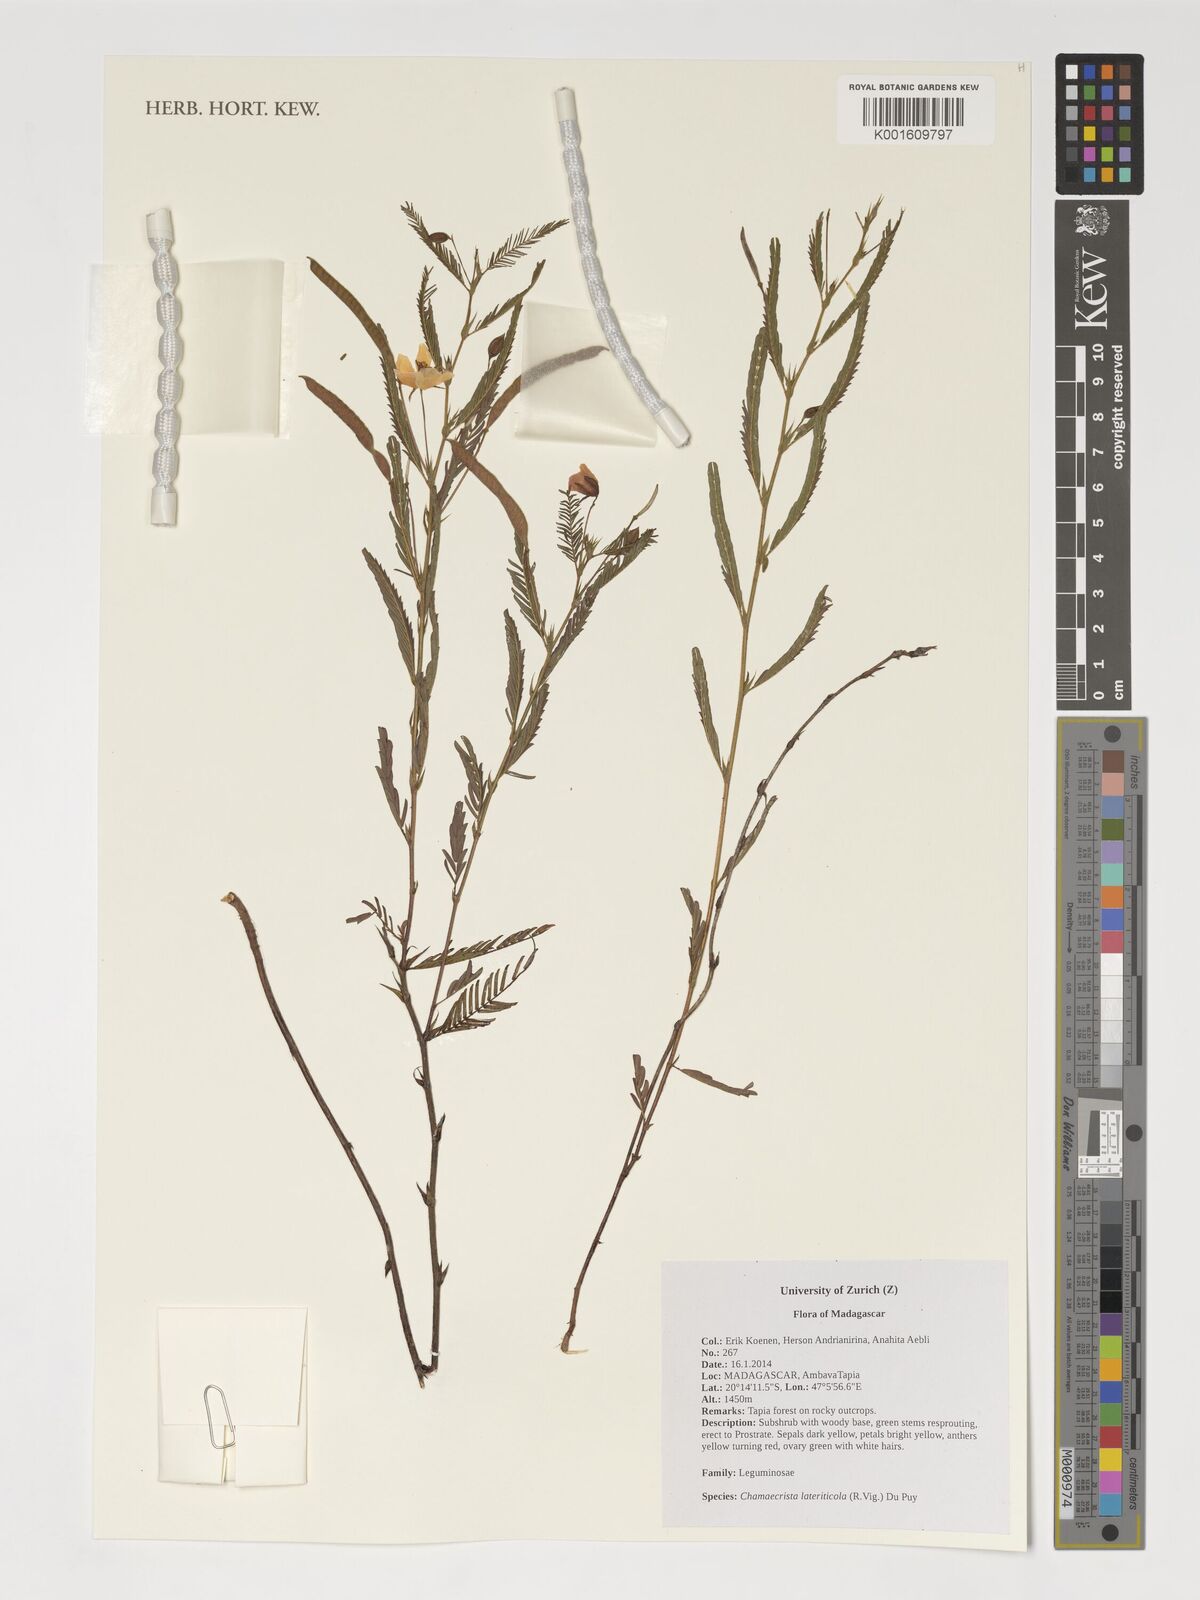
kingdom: Plantae
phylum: Tracheophyta
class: Magnoliopsida
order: Fabales
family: Fabaceae
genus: Chamaecrista
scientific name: Chamaecrista lateriticola
